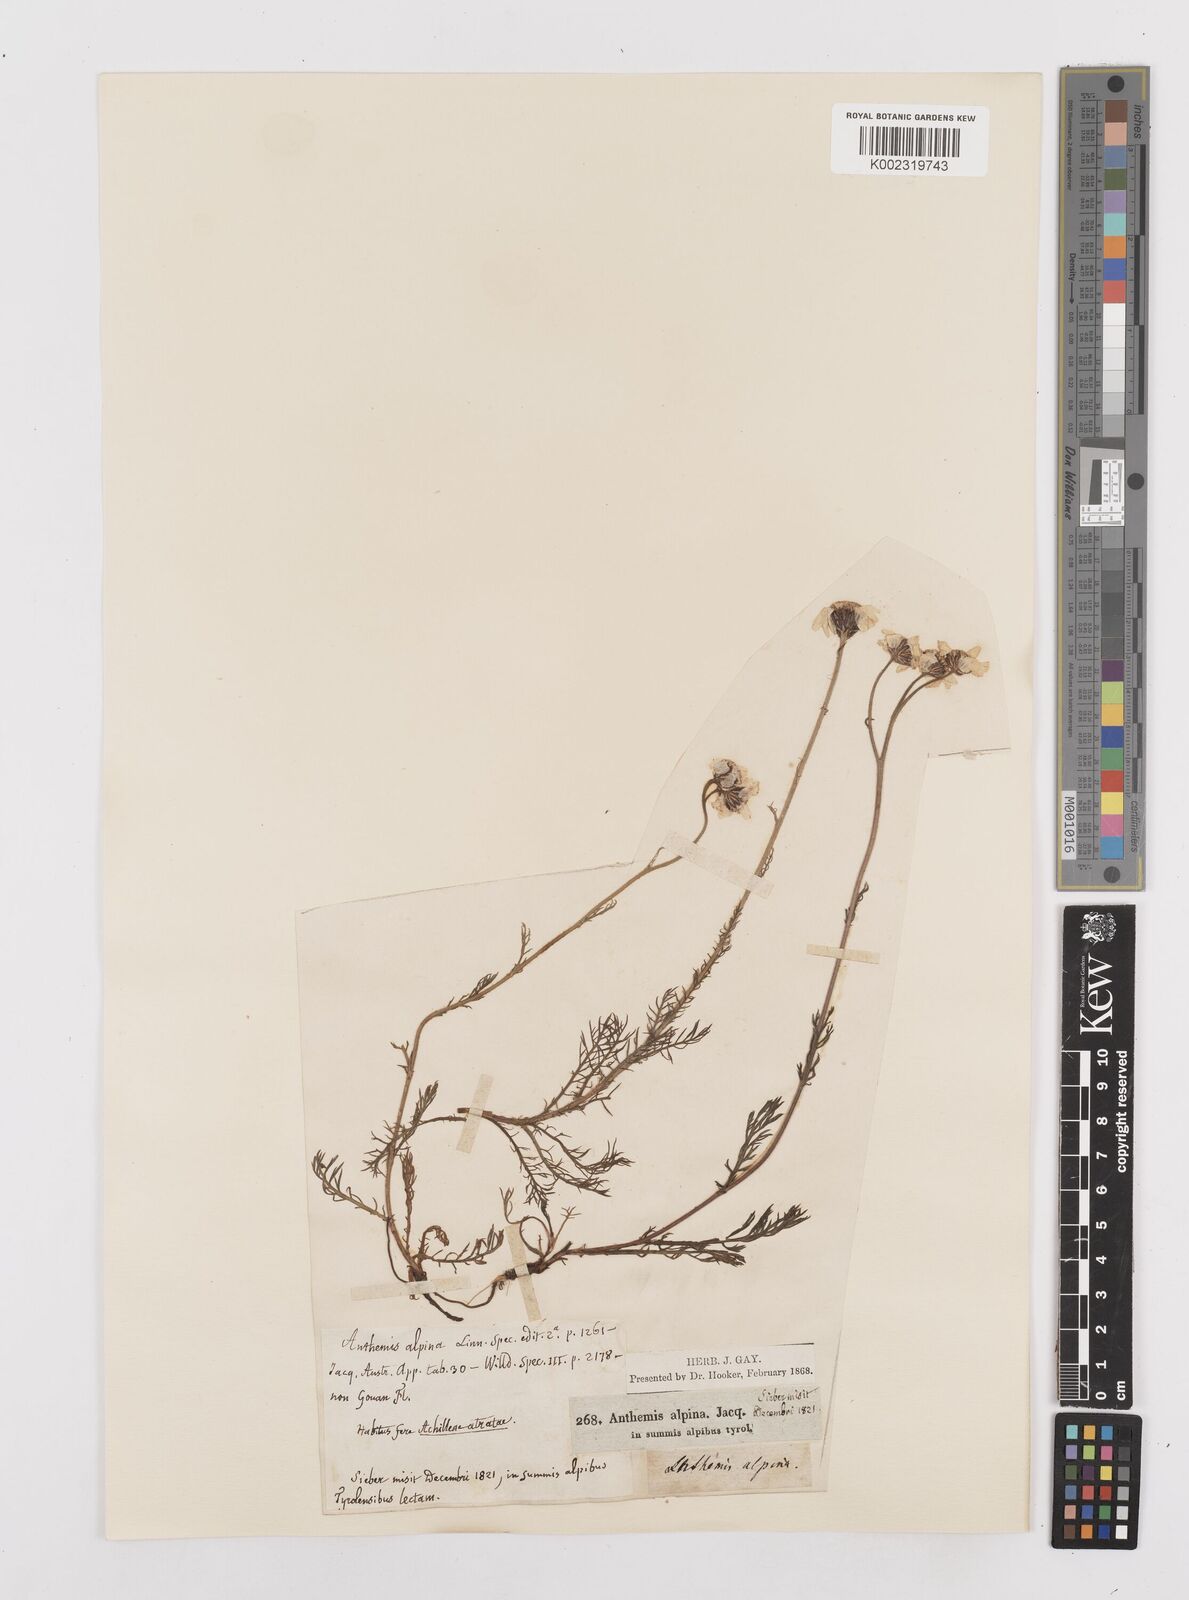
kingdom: Plantae
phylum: Tracheophyta
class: Magnoliopsida
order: Asterales
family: Asteraceae
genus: Achillea
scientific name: Achillea oxyloba
